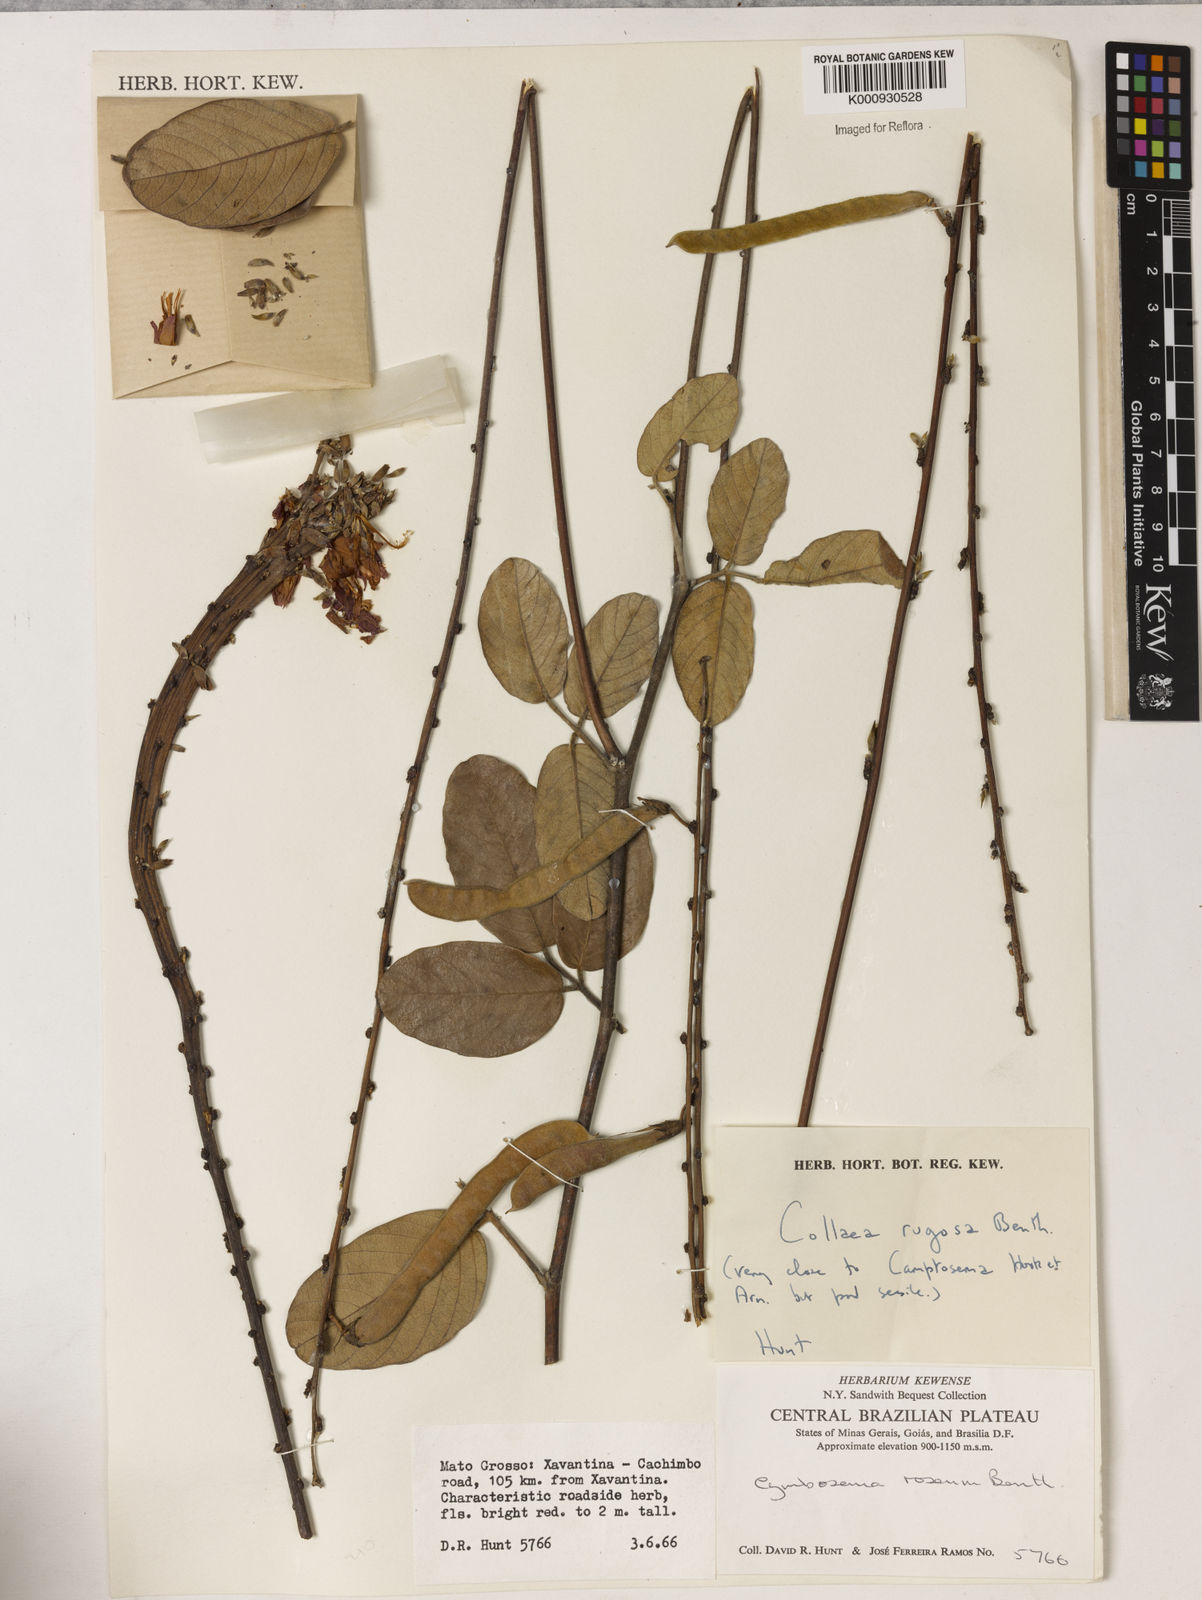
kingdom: Plantae
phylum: Tracheophyta
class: Magnoliopsida
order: Fabales
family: Fabaceae
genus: Galactia
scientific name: Galactia
